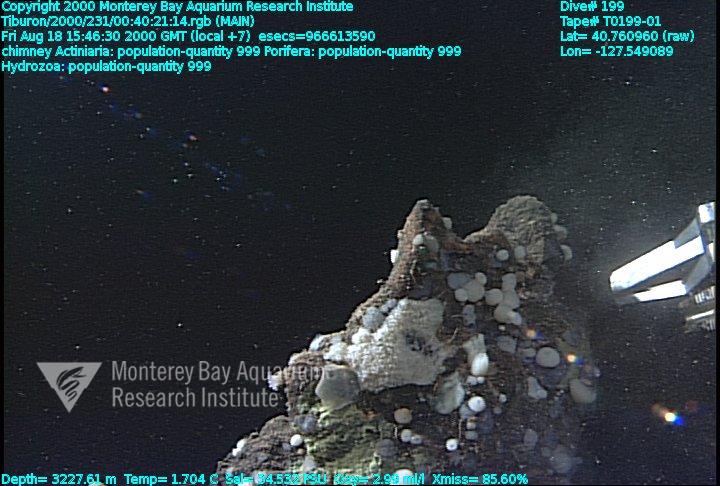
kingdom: Animalia
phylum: Porifera
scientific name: Porifera
